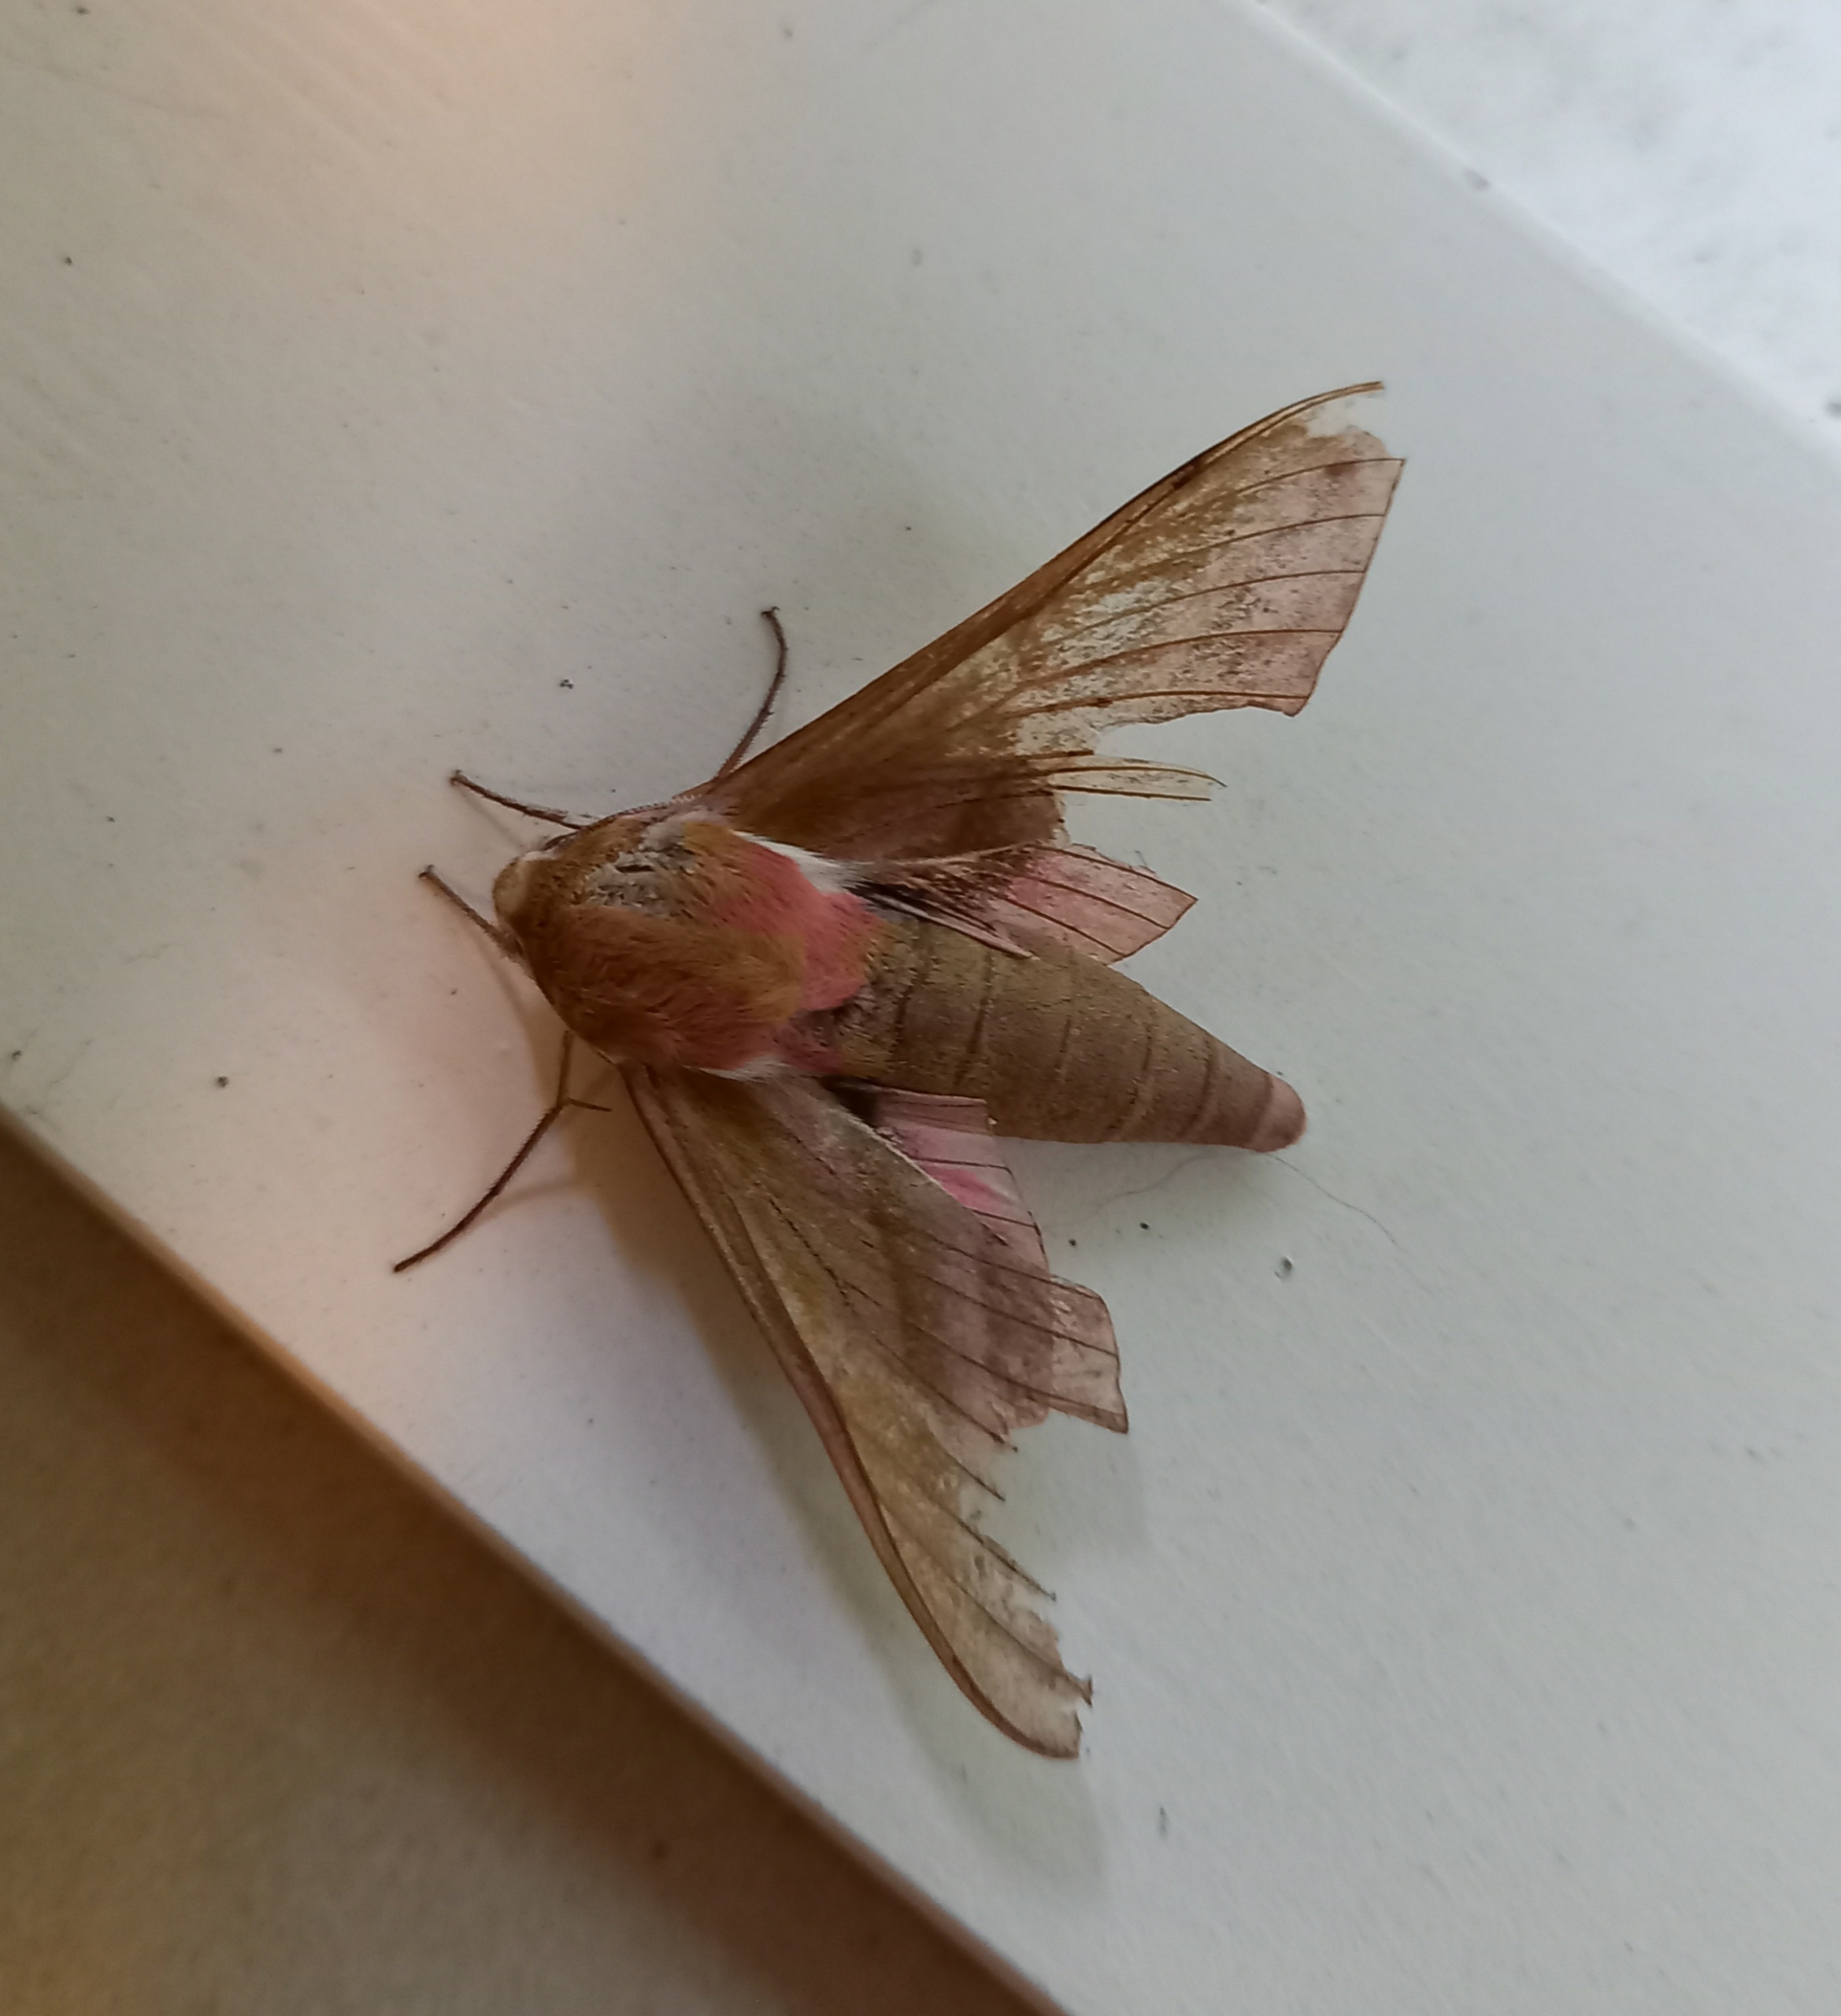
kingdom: Animalia
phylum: Arthropoda
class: Insecta
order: Lepidoptera
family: Sphingidae
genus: Deilephila
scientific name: Deilephila elpenor
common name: Dueurtsværmer
